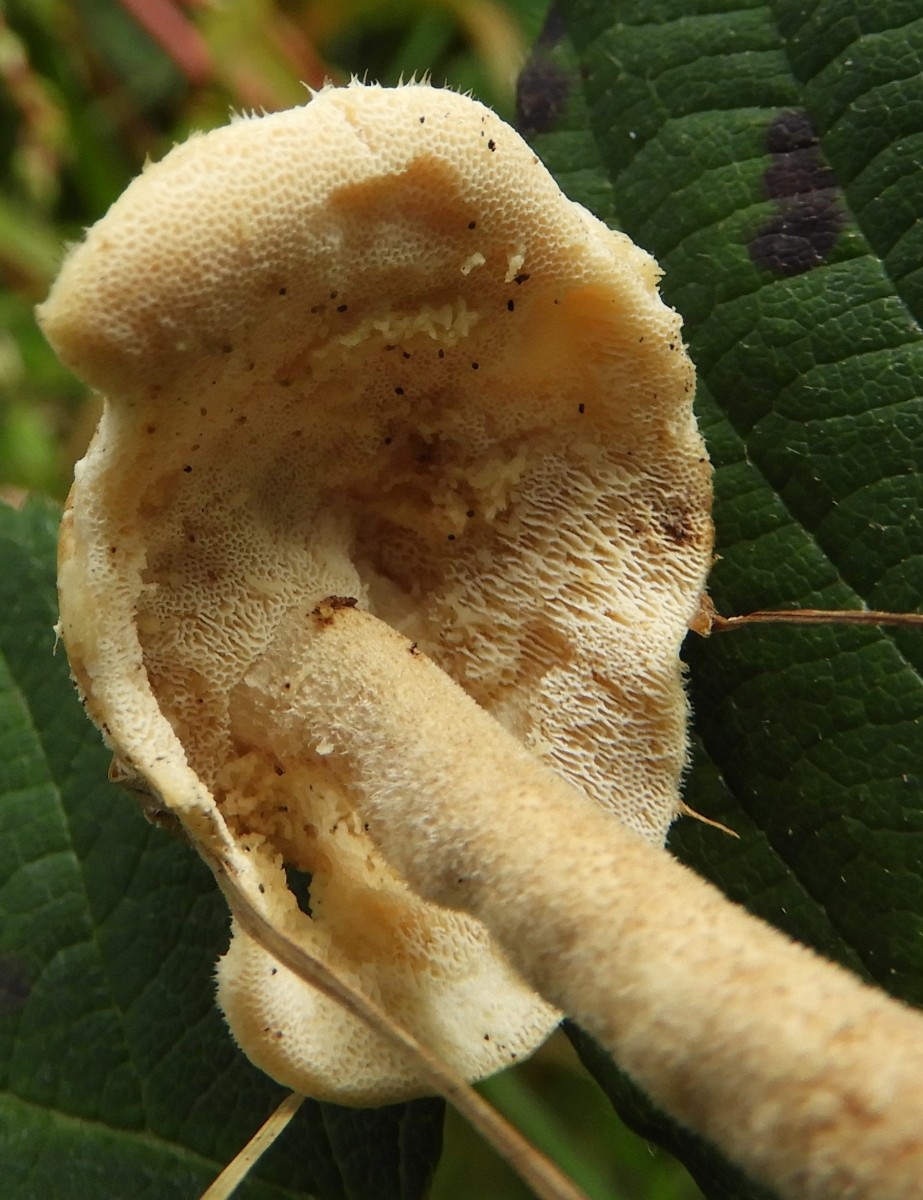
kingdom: Fungi
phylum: Basidiomycota
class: Agaricomycetes
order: Polyporales
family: Polyporaceae
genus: Lentinus
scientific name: Lentinus substrictus
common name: forårs-stilkporesvamp
